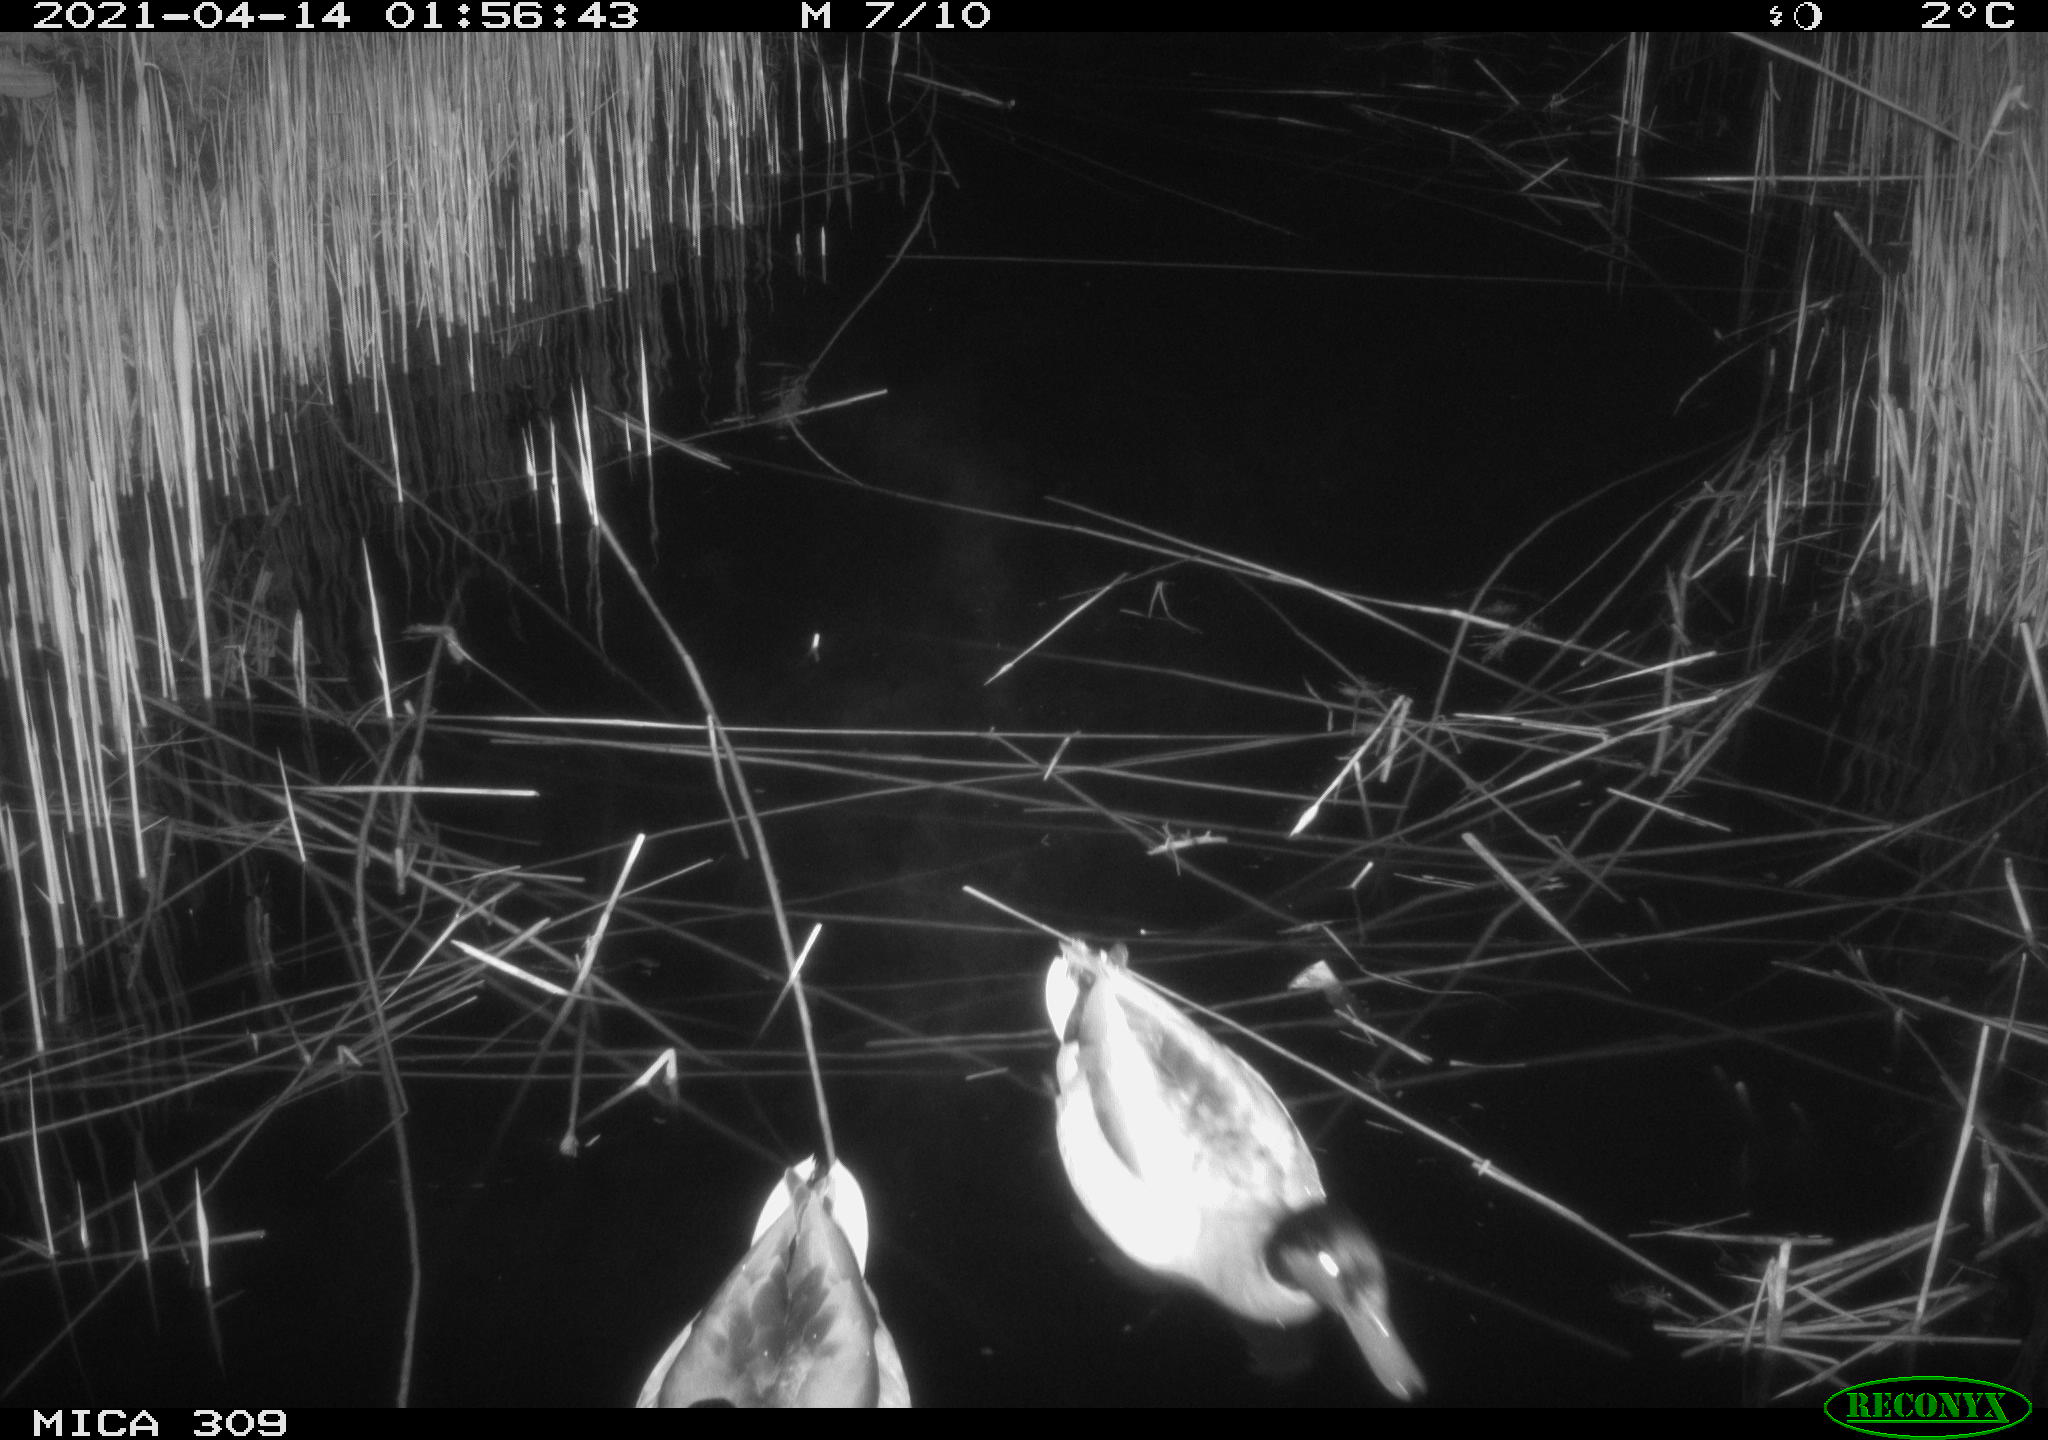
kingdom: Animalia
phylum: Chordata
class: Aves
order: Anseriformes
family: Anatidae
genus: Anas
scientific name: Anas platyrhynchos
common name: Mallard
